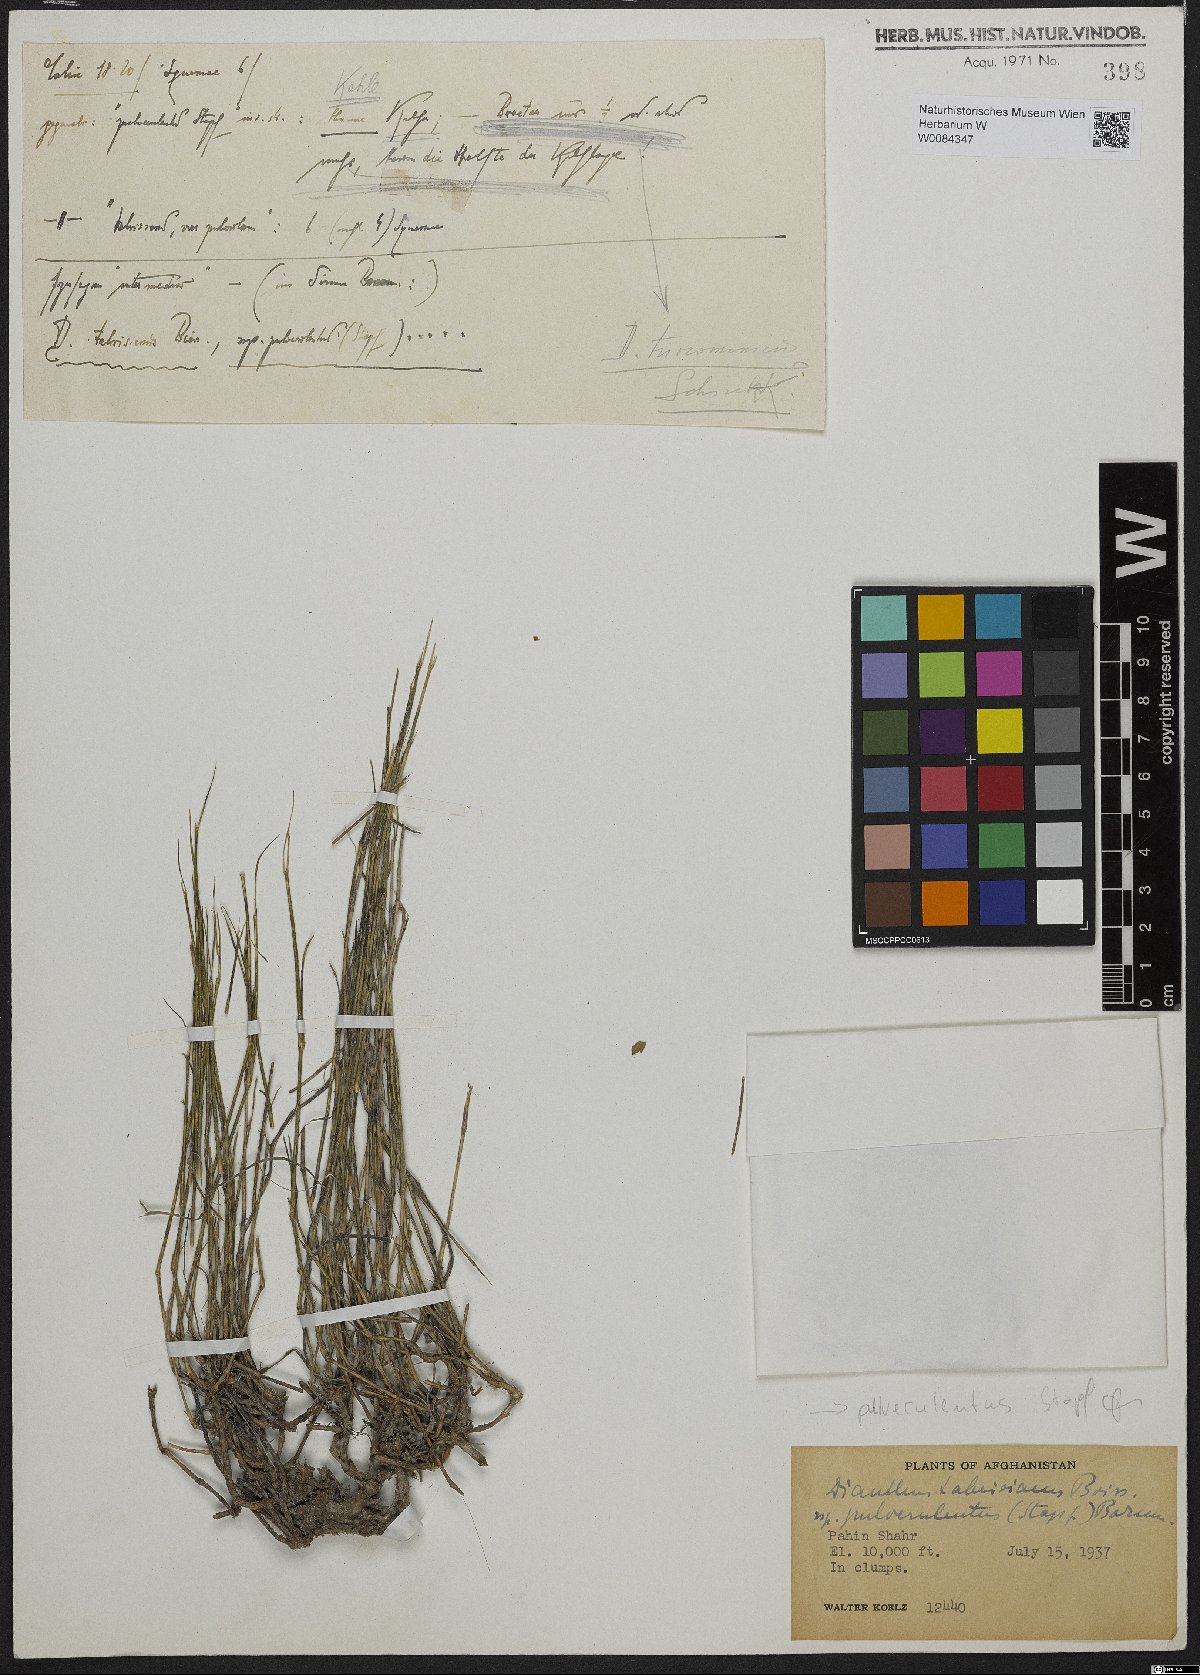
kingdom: Plantae
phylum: Tracheophyta
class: Magnoliopsida
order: Caryophyllales
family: Caryophyllaceae
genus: Dianthus
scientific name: Dianthus orientalis
